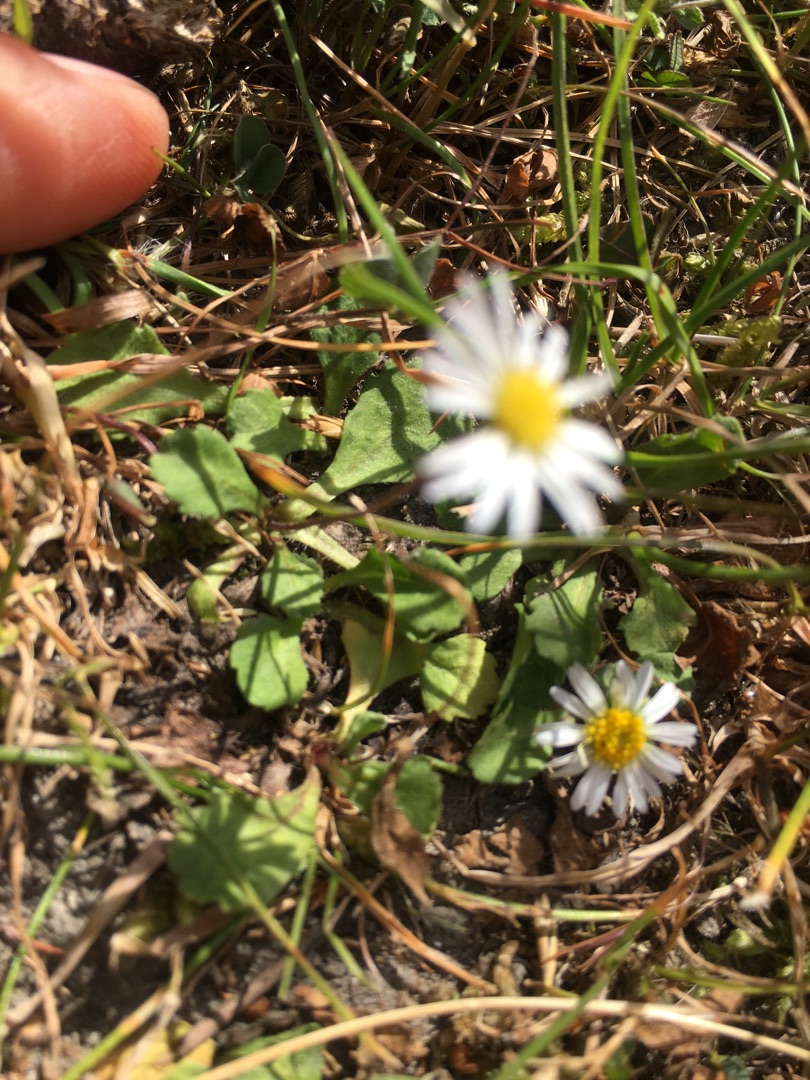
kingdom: Plantae
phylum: Tracheophyta
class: Magnoliopsida
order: Asterales
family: Asteraceae
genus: Bellis
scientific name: Bellis perennis
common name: Tusindfryd
